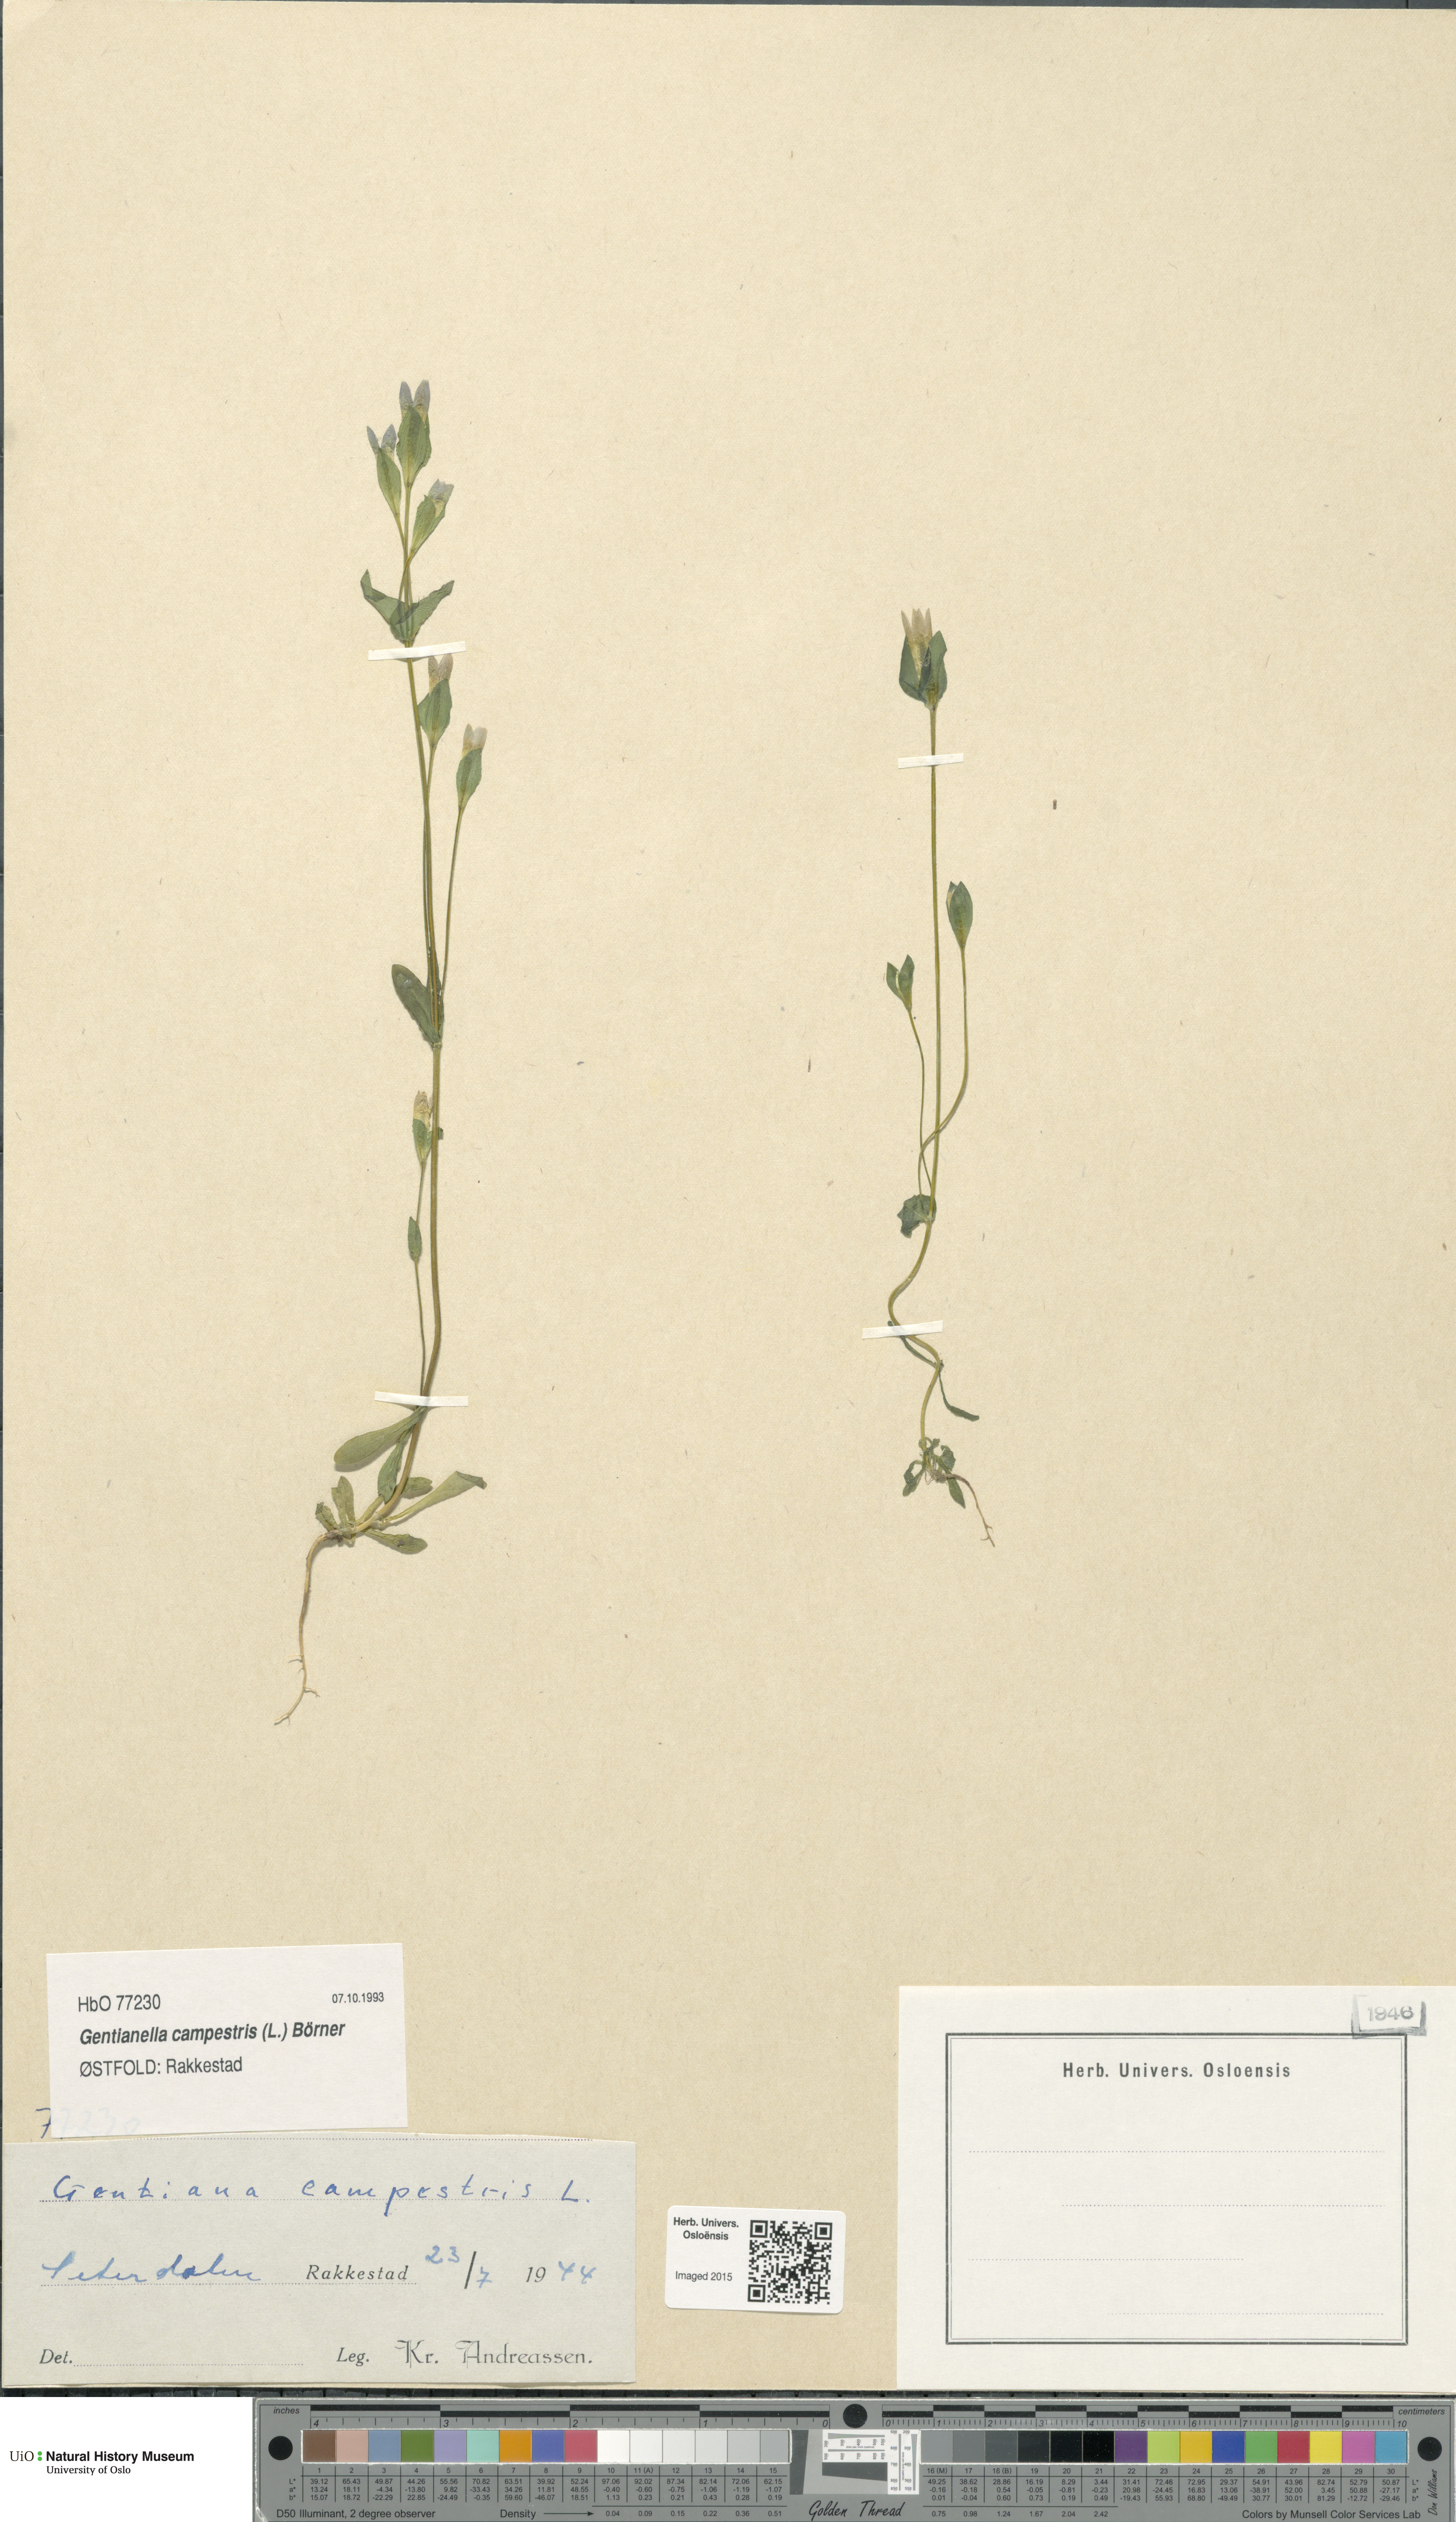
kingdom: Plantae
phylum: Tracheophyta
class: Magnoliopsida
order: Gentianales
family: Gentianaceae
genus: Gentianella
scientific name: Gentianella campestris
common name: Field gentian
